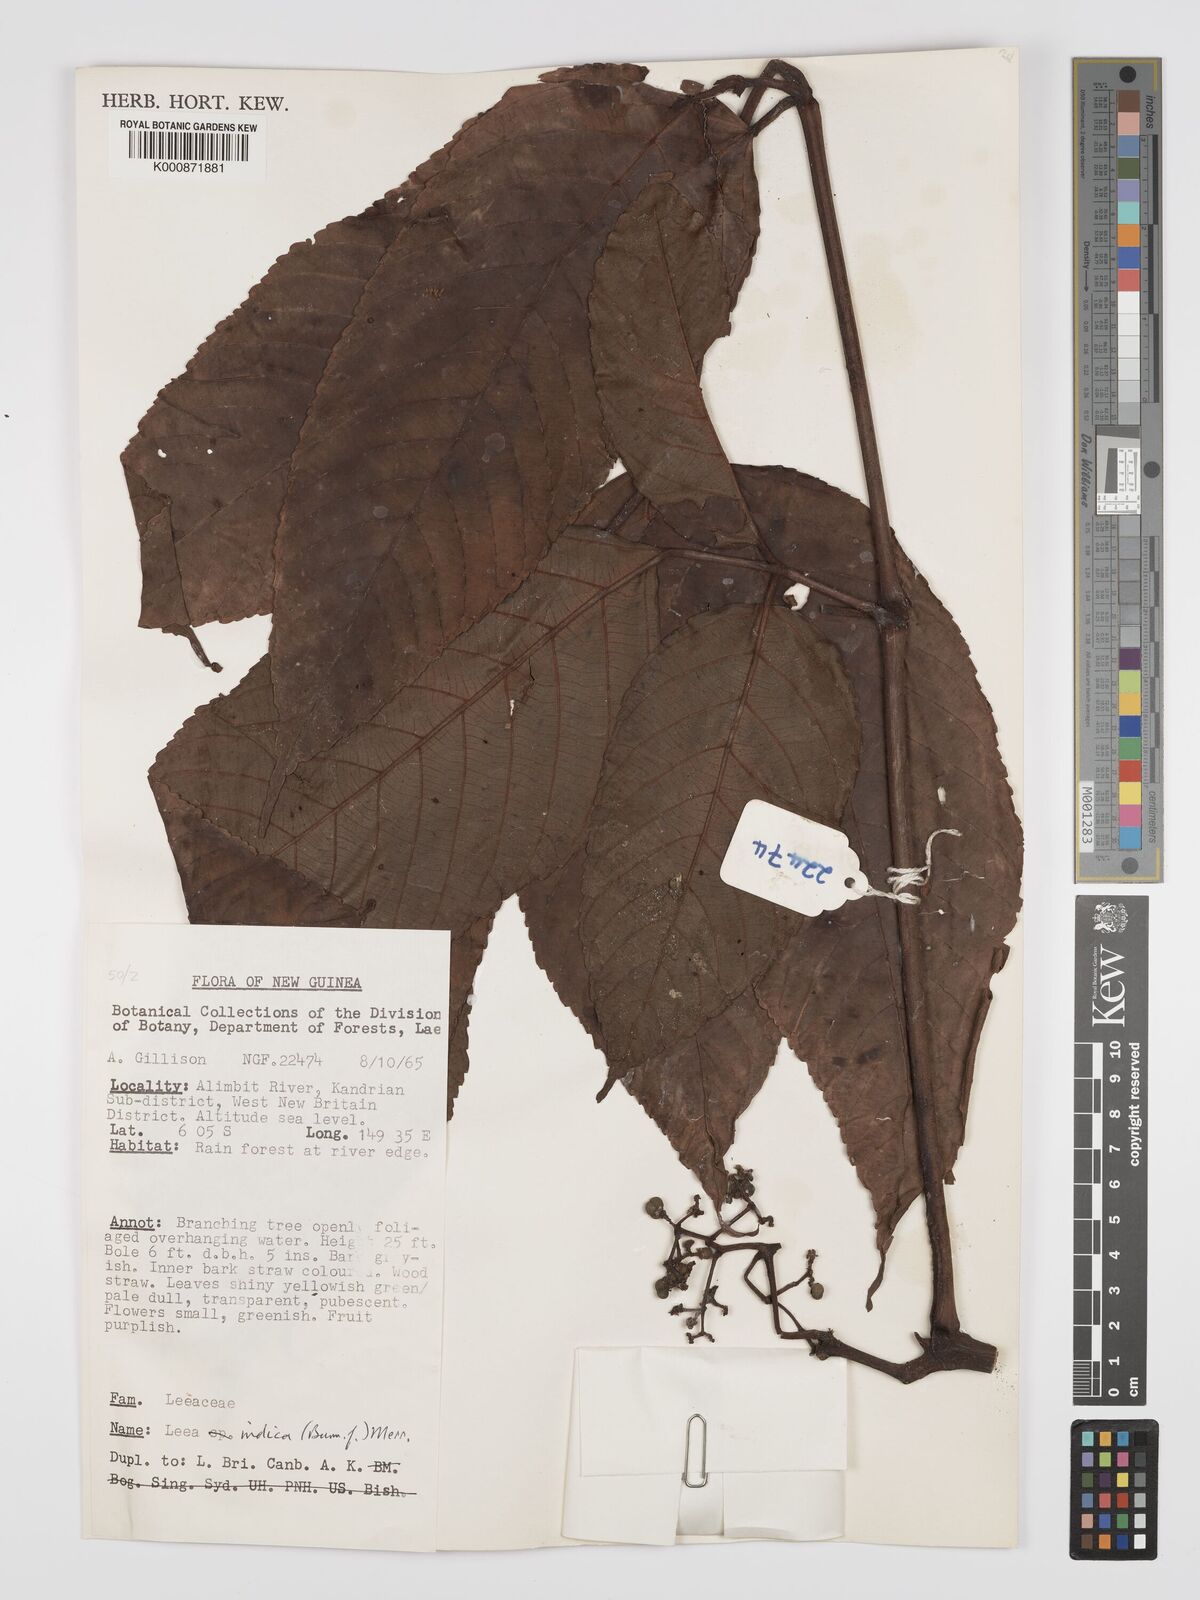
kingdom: Plantae
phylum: Tracheophyta
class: Magnoliopsida
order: Vitales
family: Vitaceae
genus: Leea
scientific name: Leea indica
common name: Bandicoot-berry
